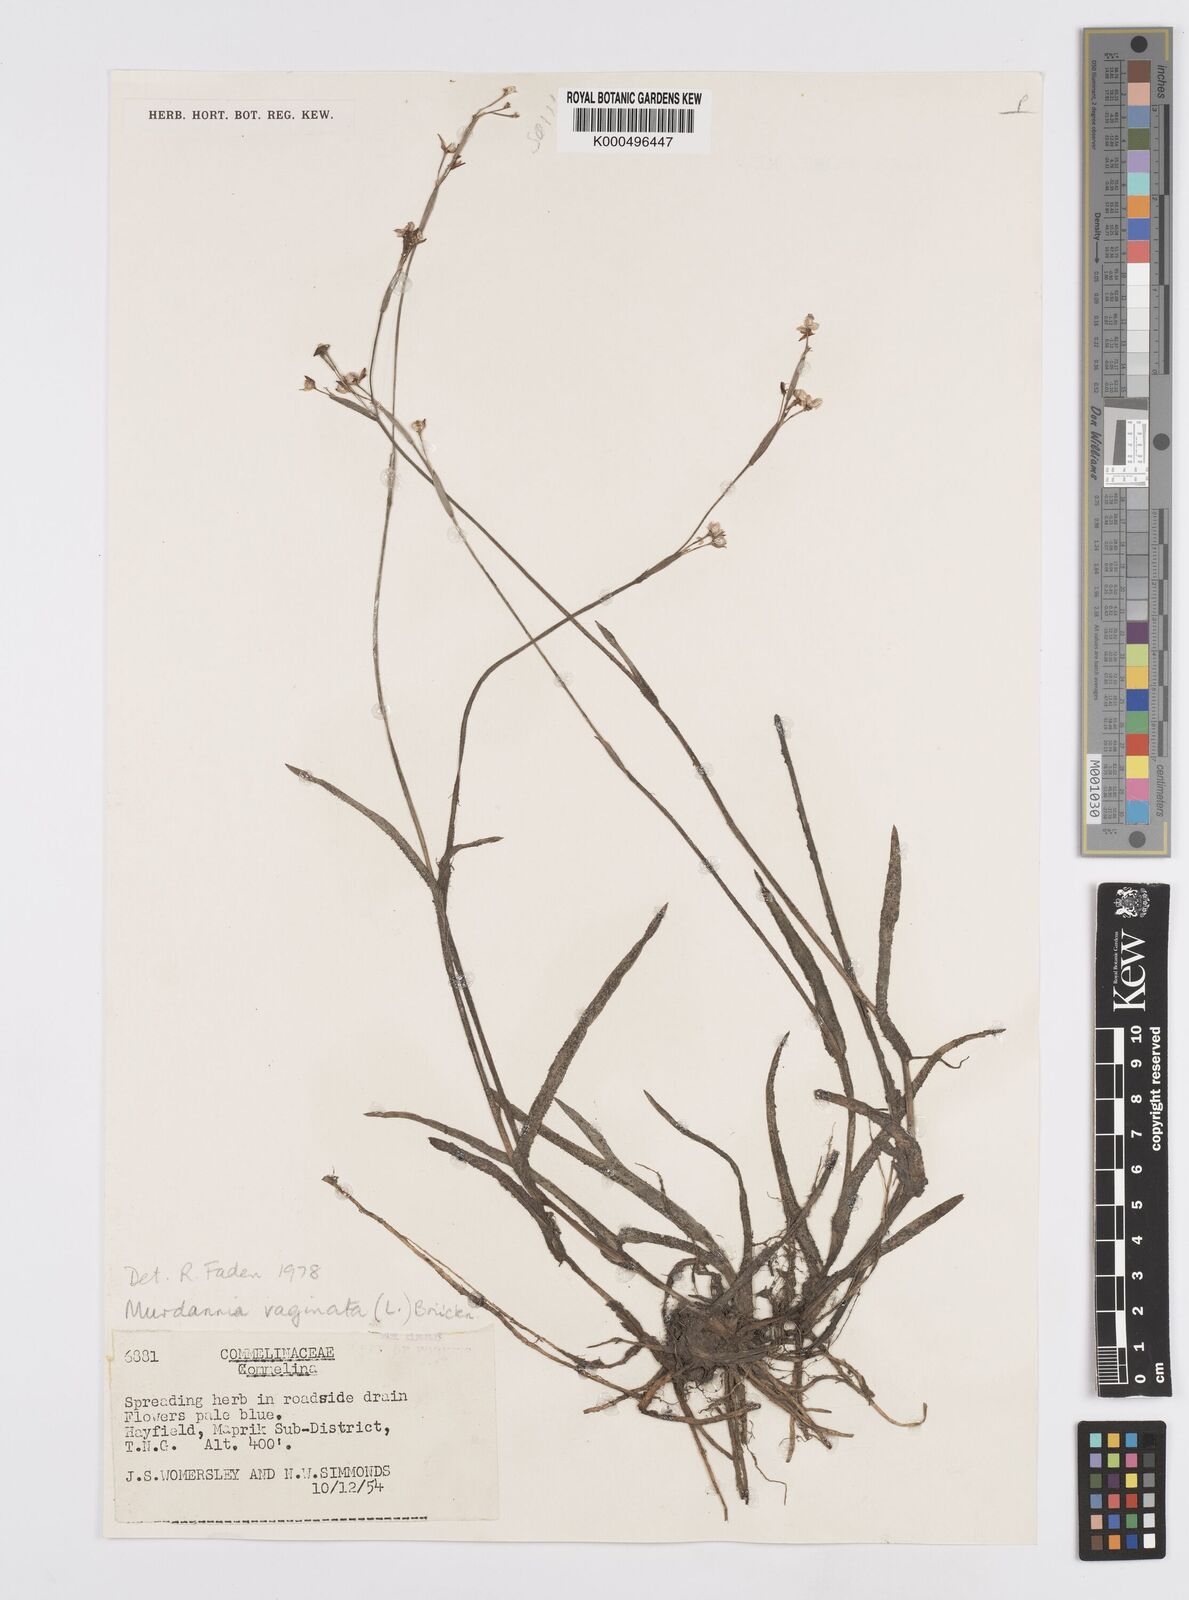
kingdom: Plantae
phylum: Tracheophyta
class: Liliopsida
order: Commelinales
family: Commelinaceae
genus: Murdannia
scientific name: Murdannia
